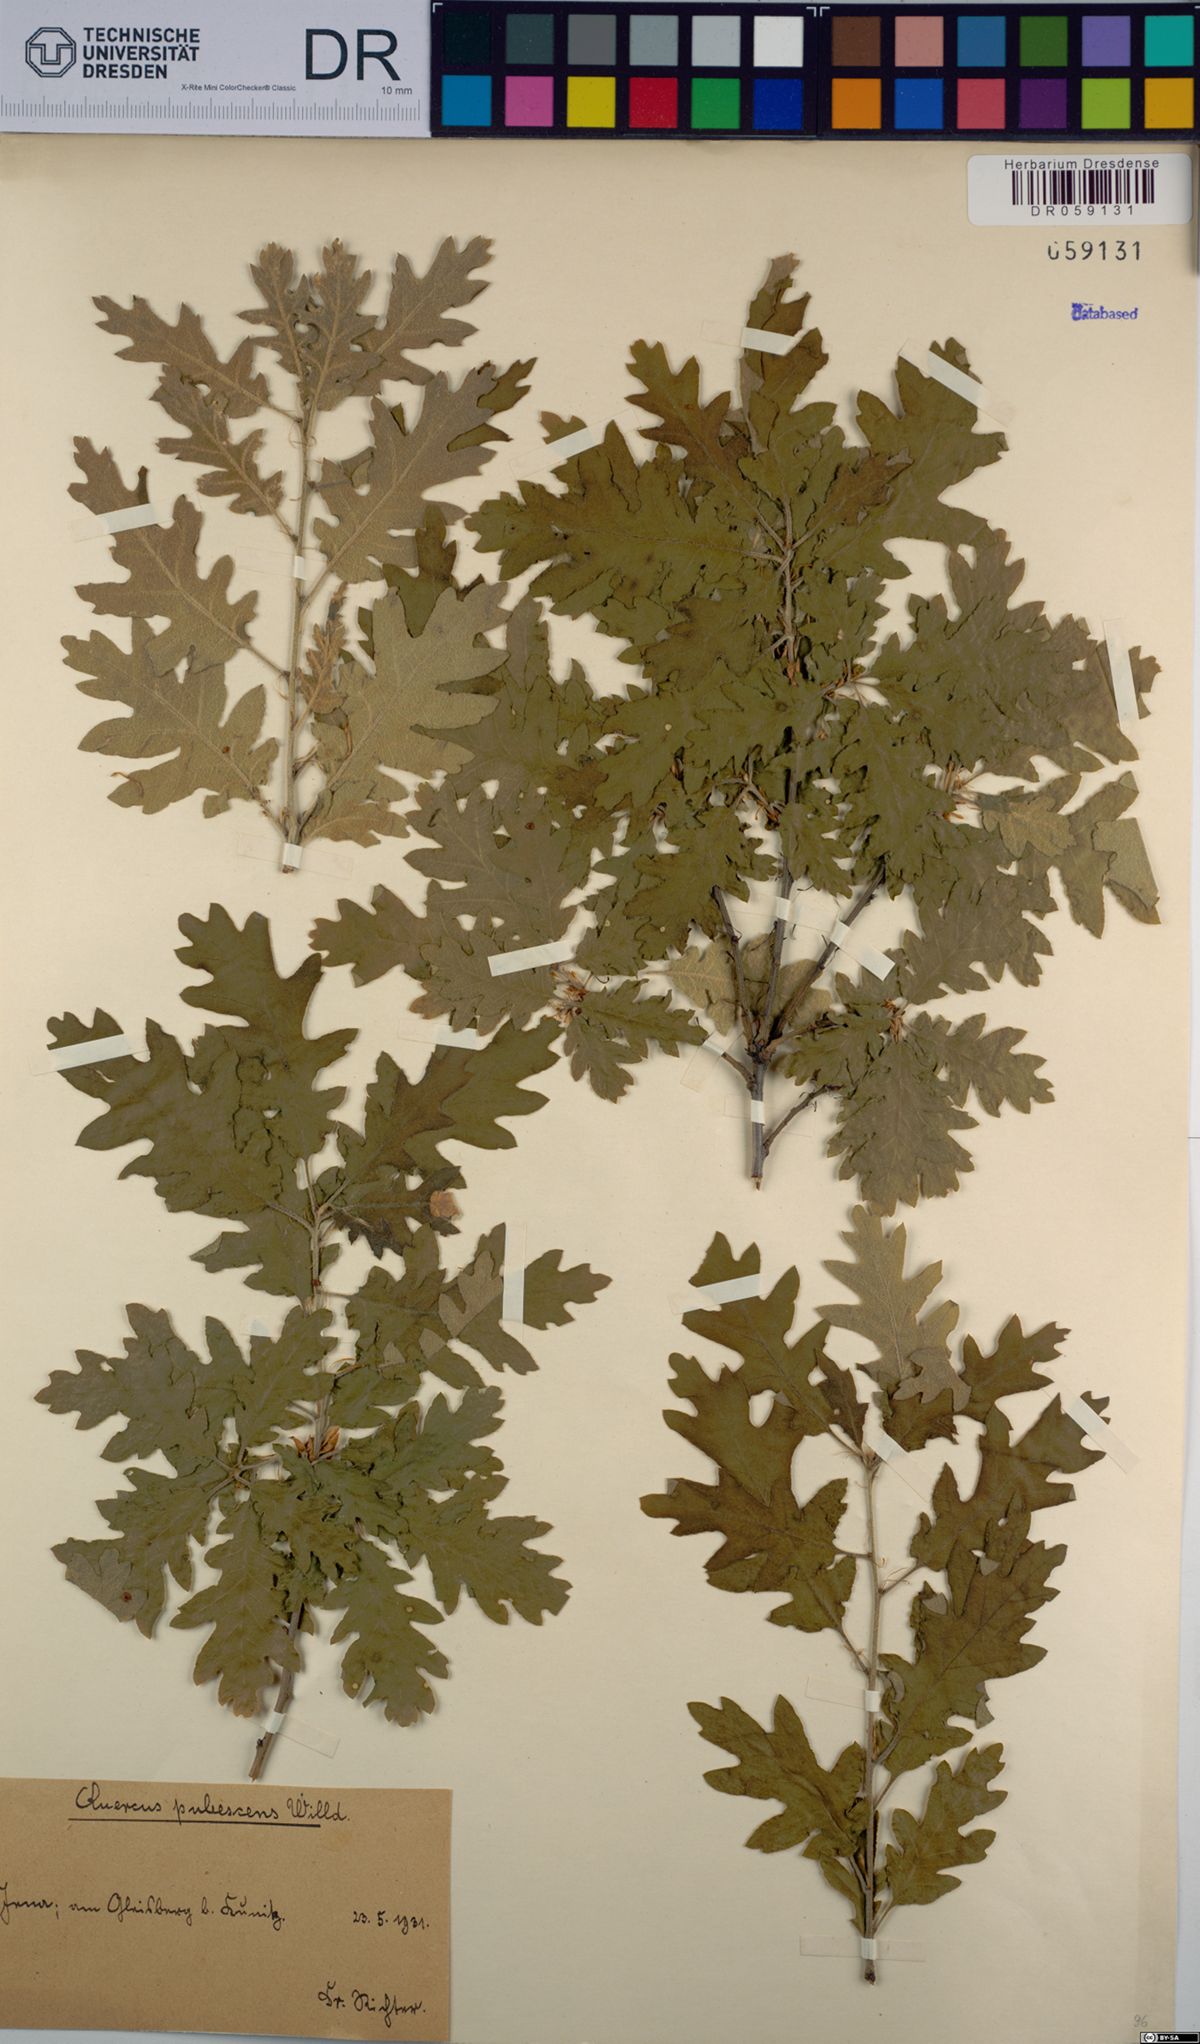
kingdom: Plantae
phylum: Tracheophyta
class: Magnoliopsida
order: Fagales
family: Fagaceae
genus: Quercus
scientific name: Quercus pubescens
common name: Downy oak
